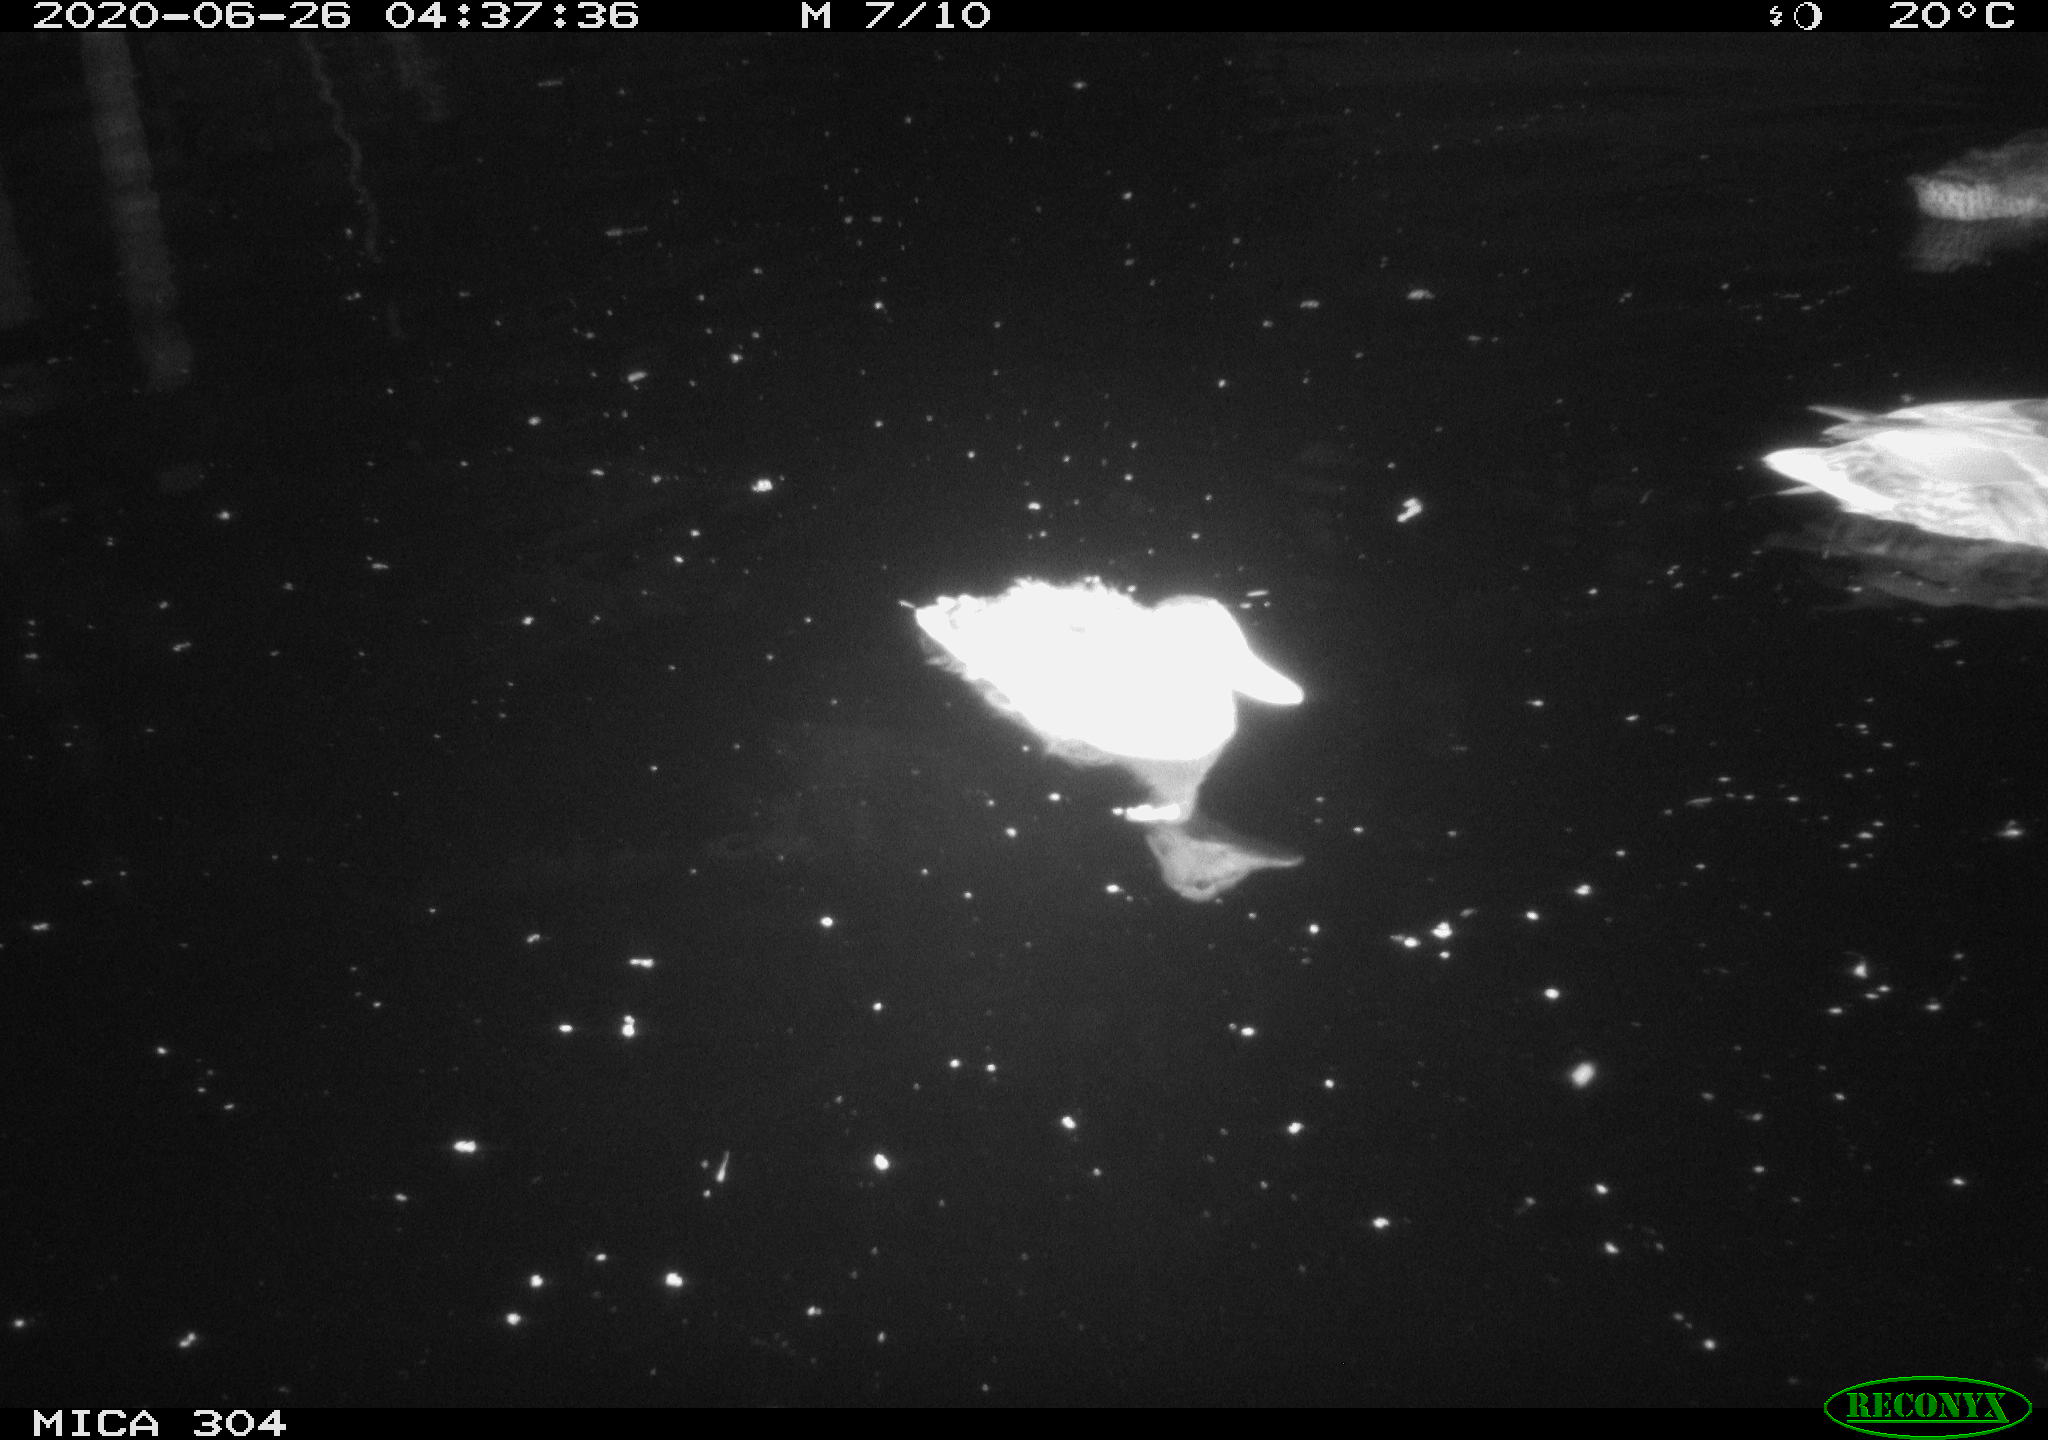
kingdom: Animalia
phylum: Chordata
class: Aves
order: Anseriformes
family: Anatidae
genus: Anas
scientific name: Anas platyrhynchos
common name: Mallard
